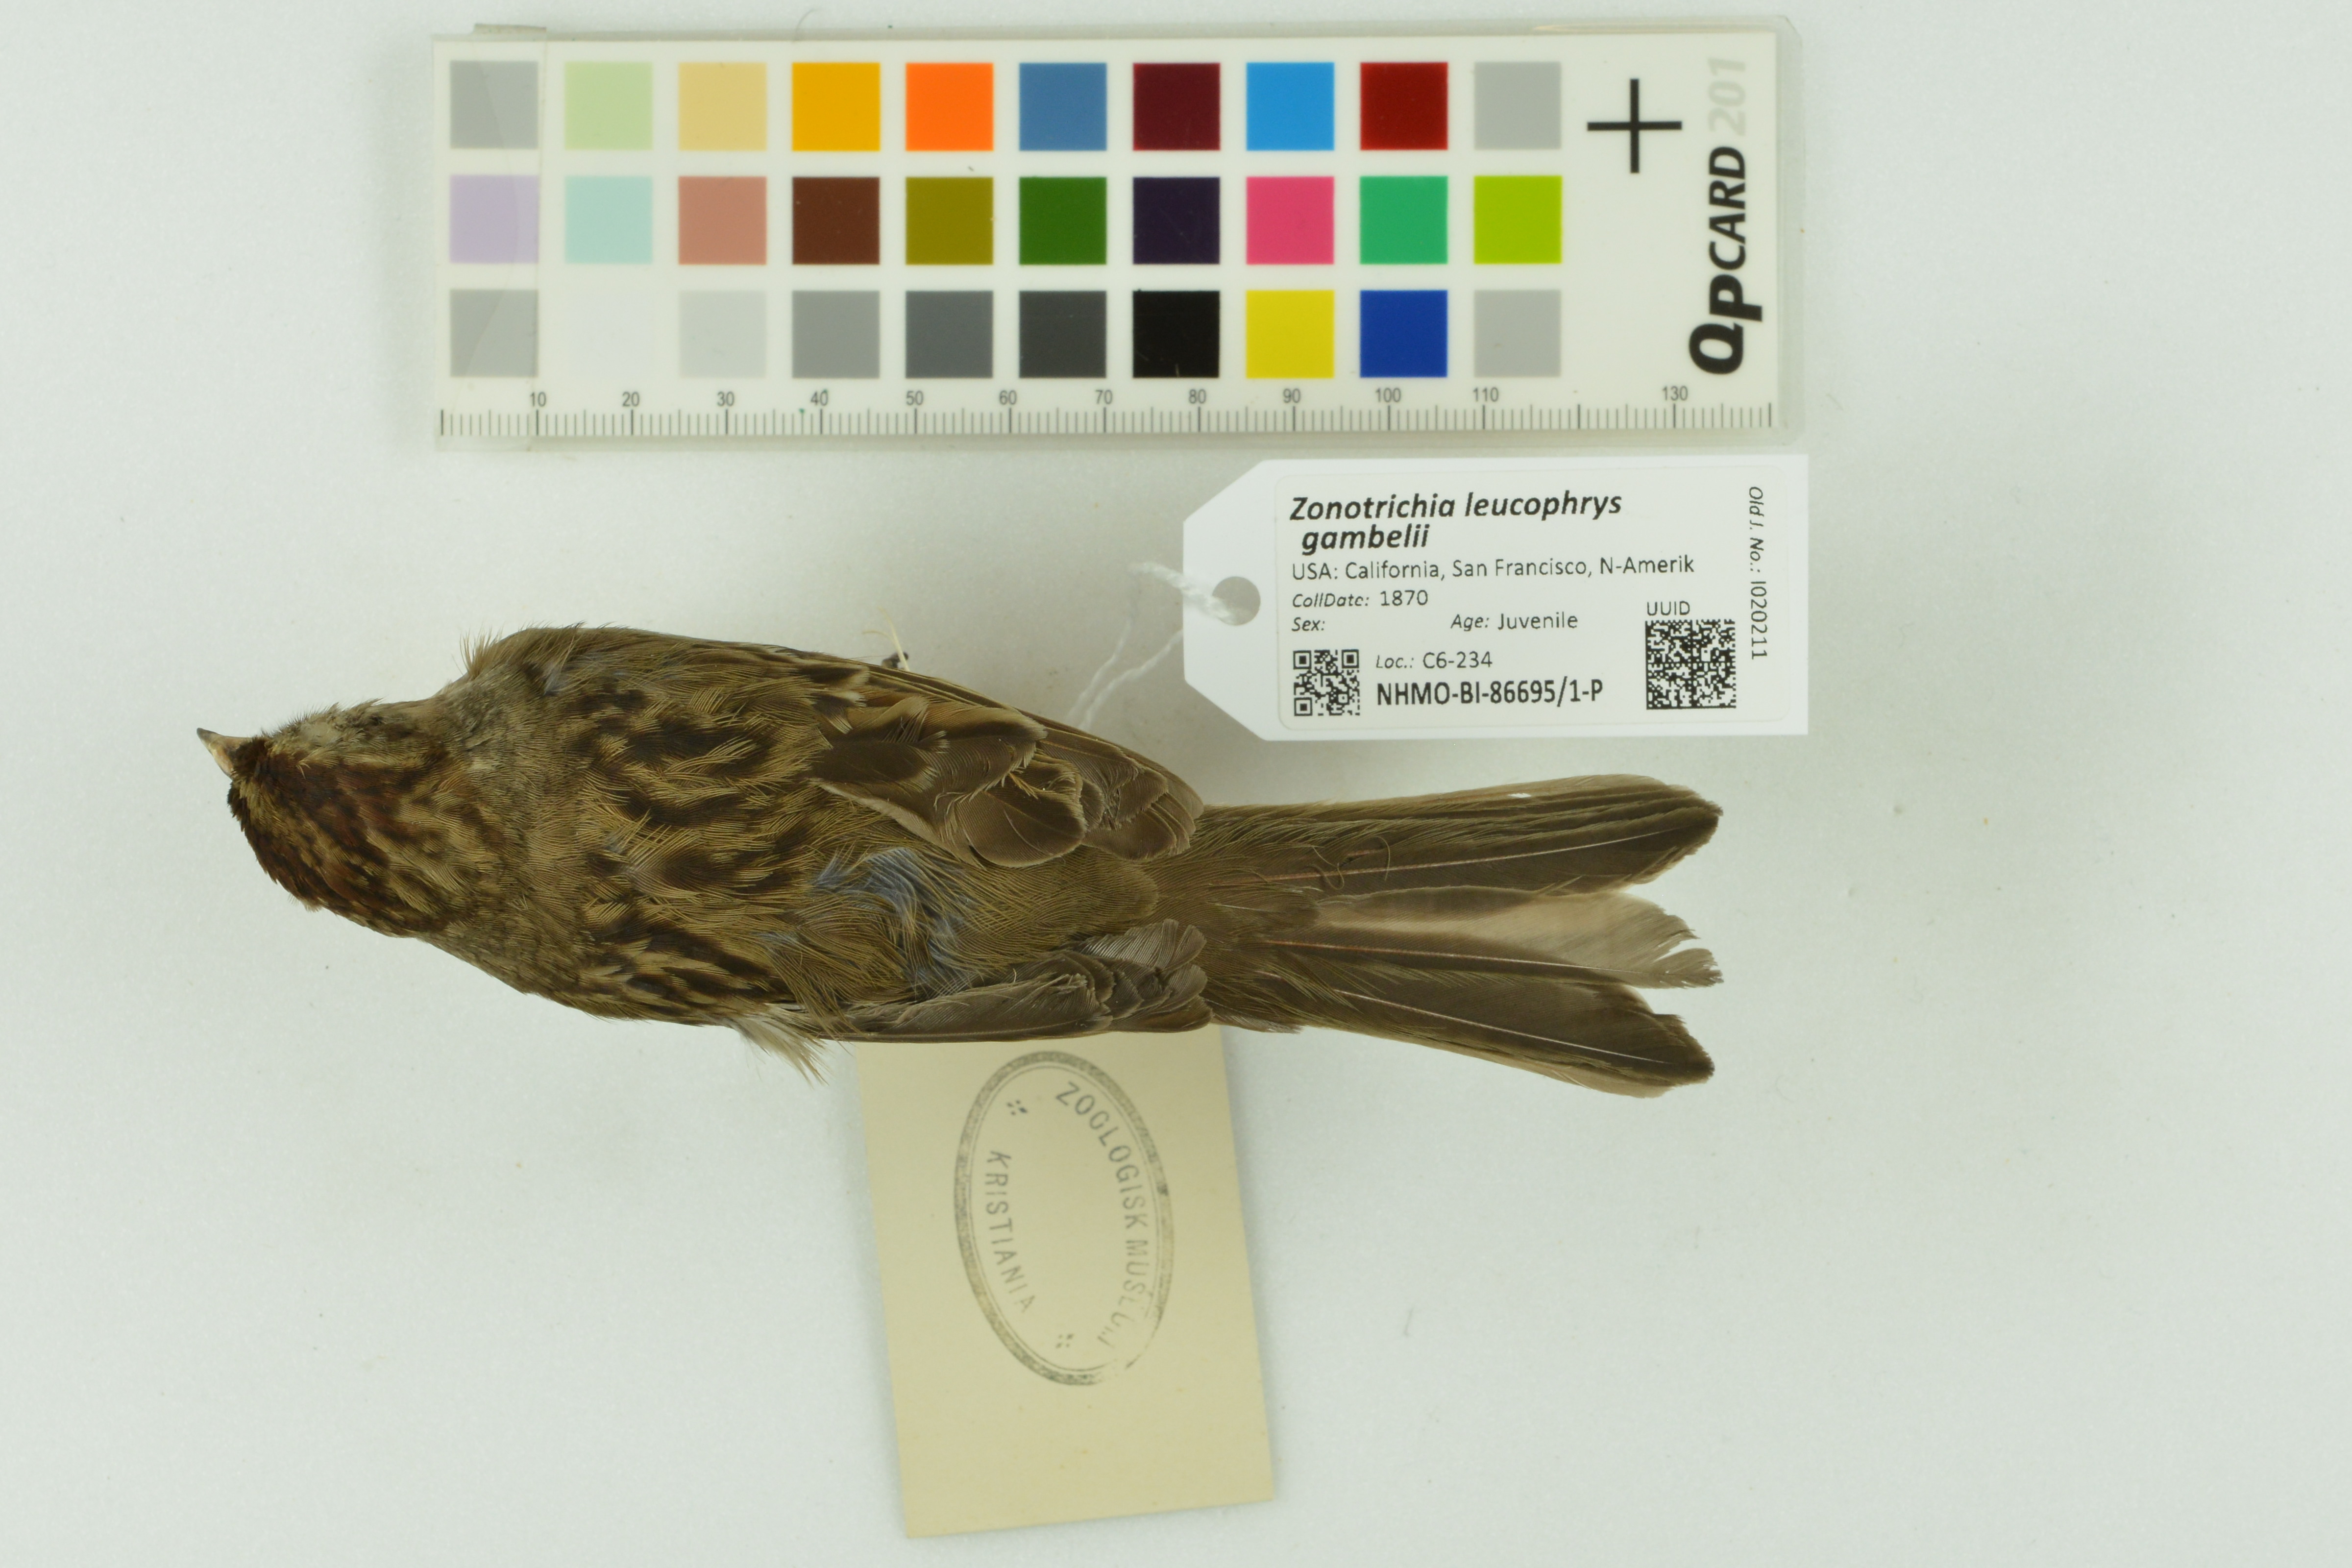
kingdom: Animalia
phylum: Chordata
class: Aves
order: Passeriformes
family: Passerellidae
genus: Zonotrichia
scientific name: Zonotrichia leucophrys
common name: White-crowned sparrow
